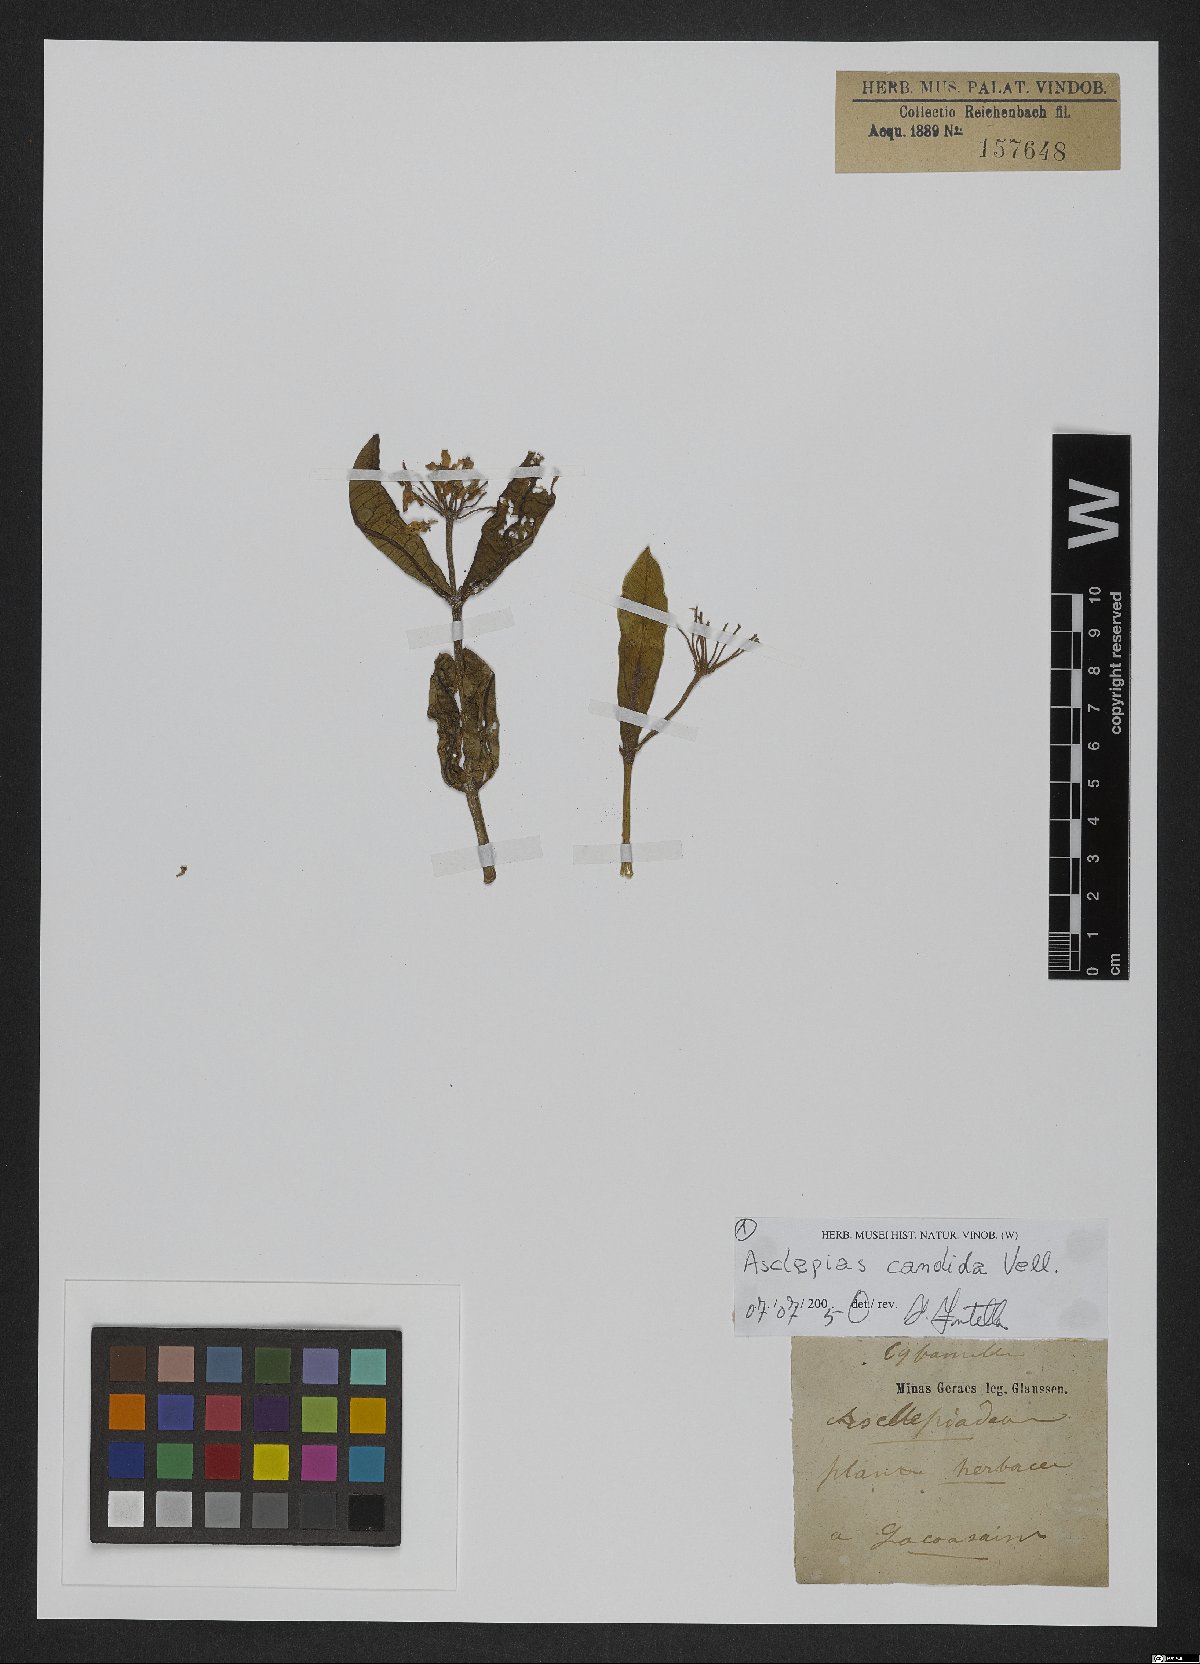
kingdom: Plantae
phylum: Tracheophyta
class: Magnoliopsida
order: Gentianales
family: Apocynaceae
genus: Asclepias
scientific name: Asclepias candida
